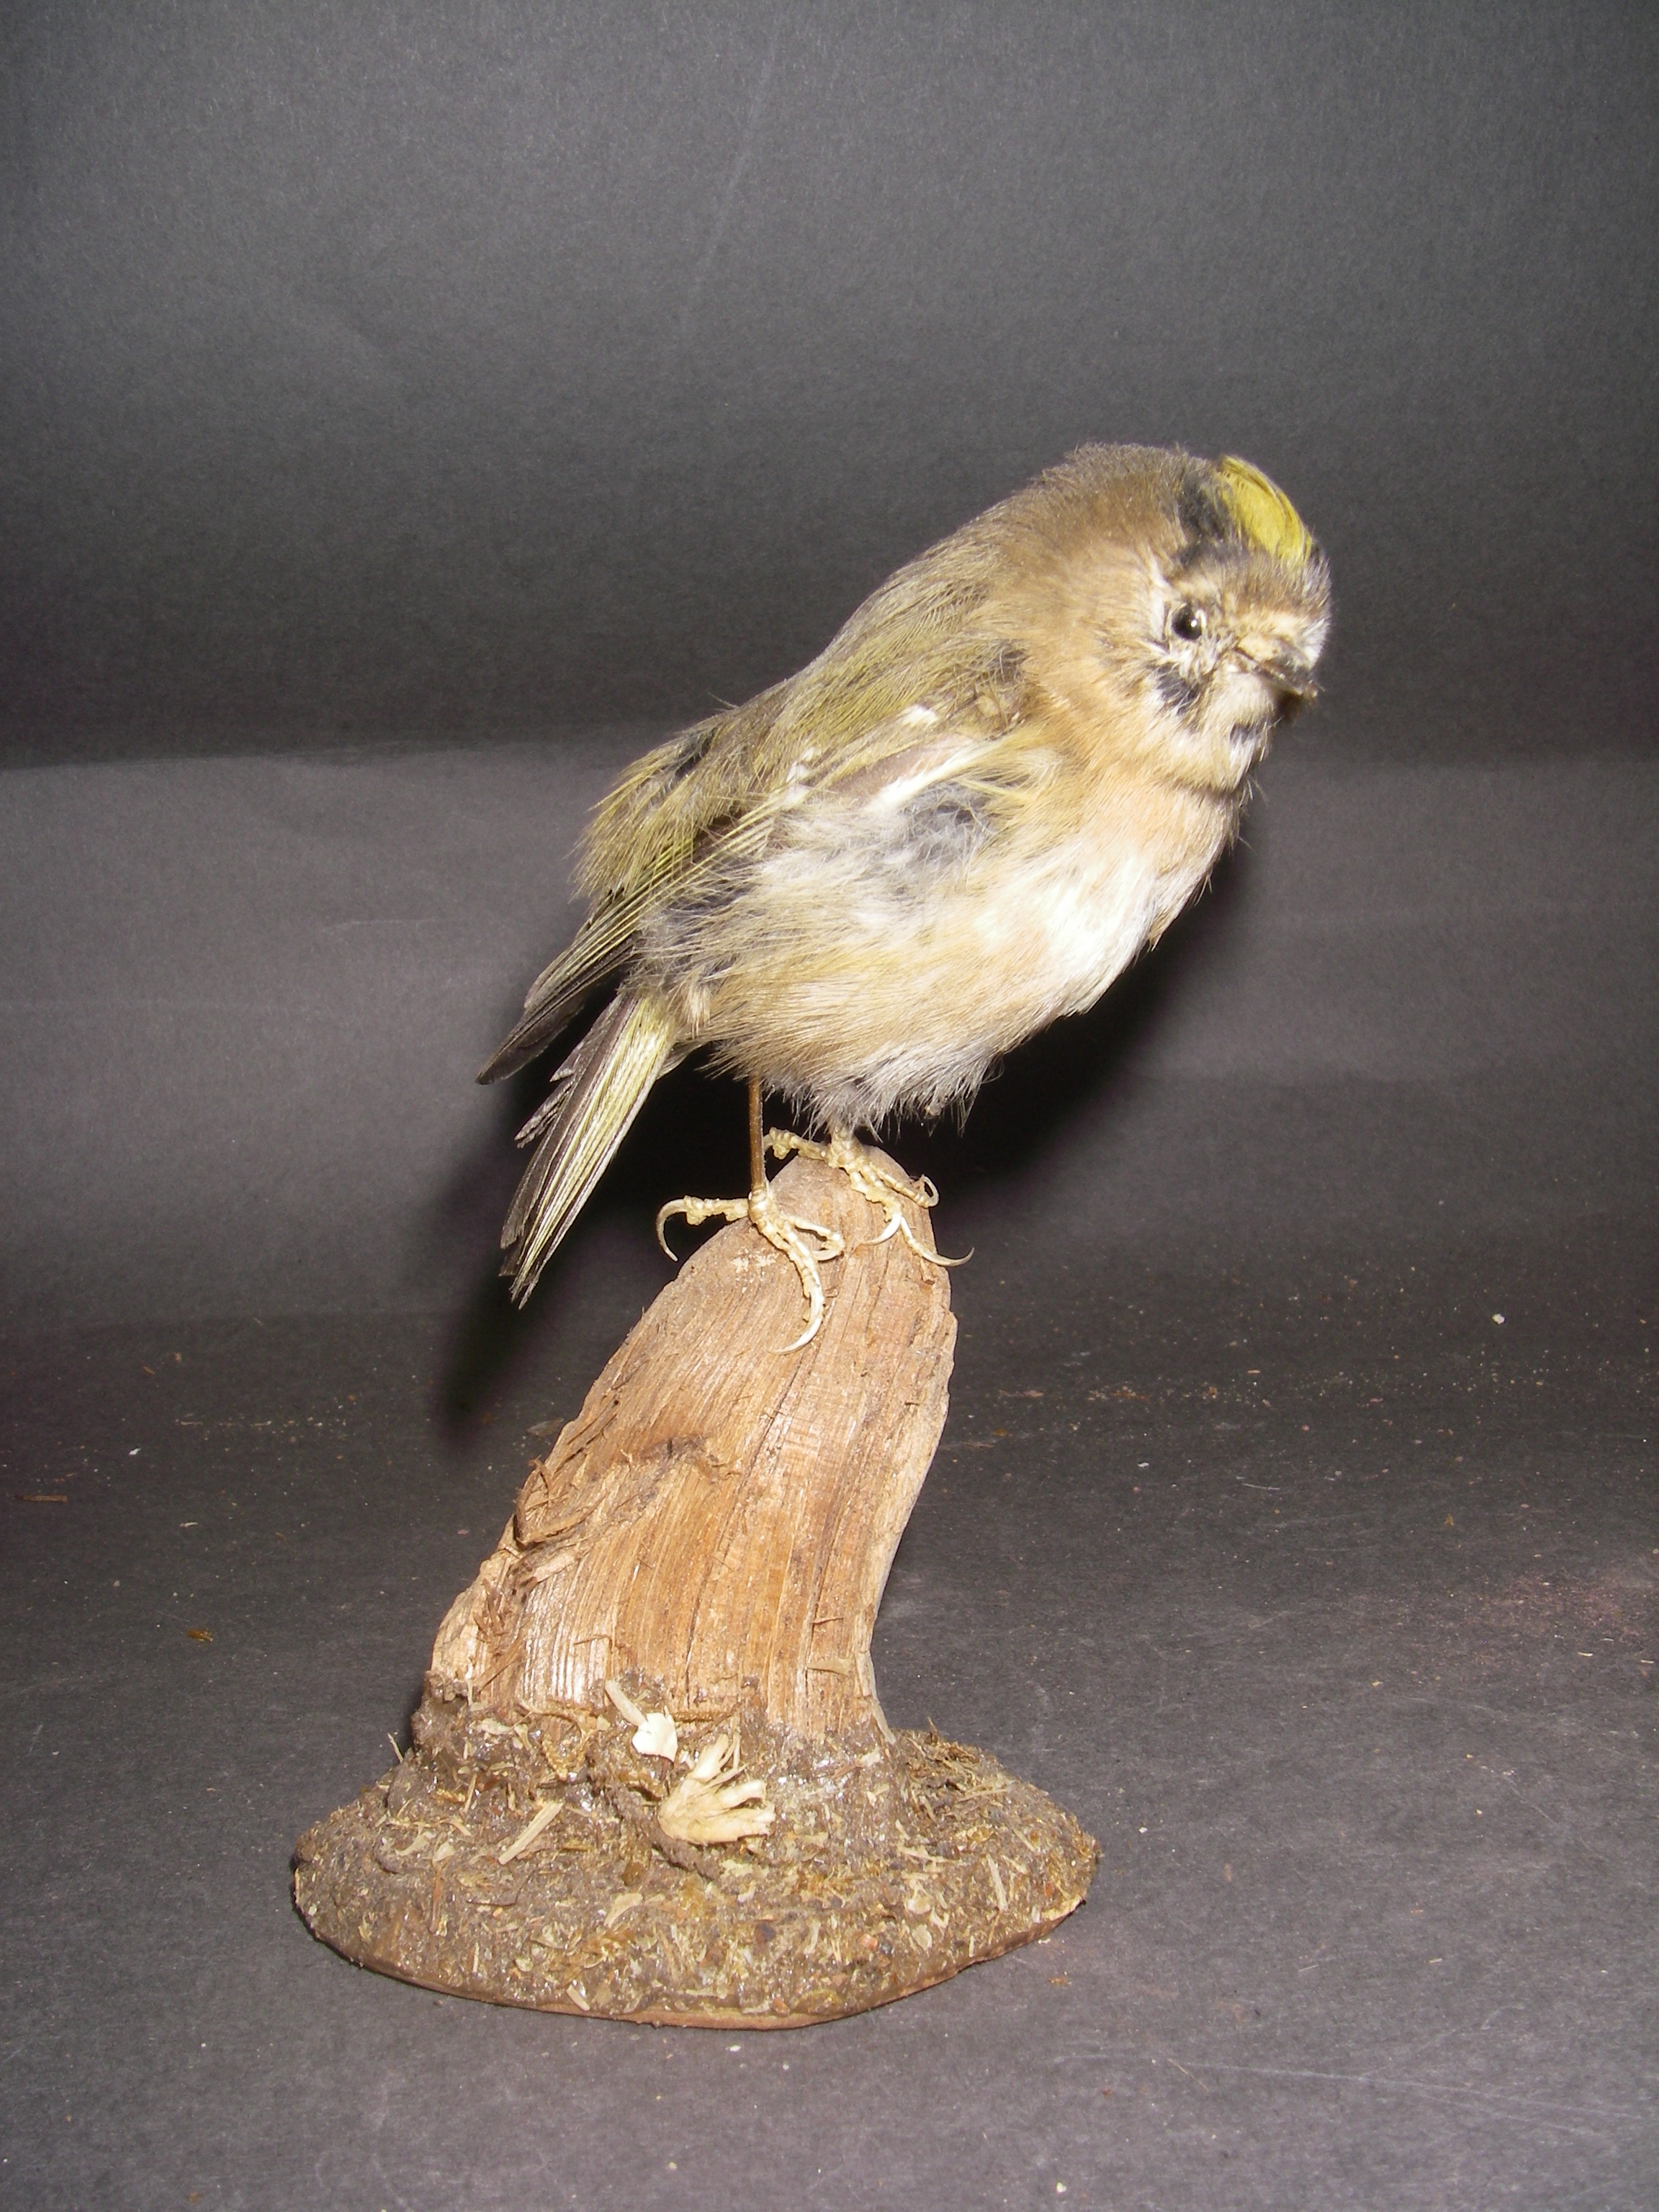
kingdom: Animalia
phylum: Chordata
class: Aves
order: Passeriformes
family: Regulidae
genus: Regulus
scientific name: Regulus regulus
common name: Goldcrest
